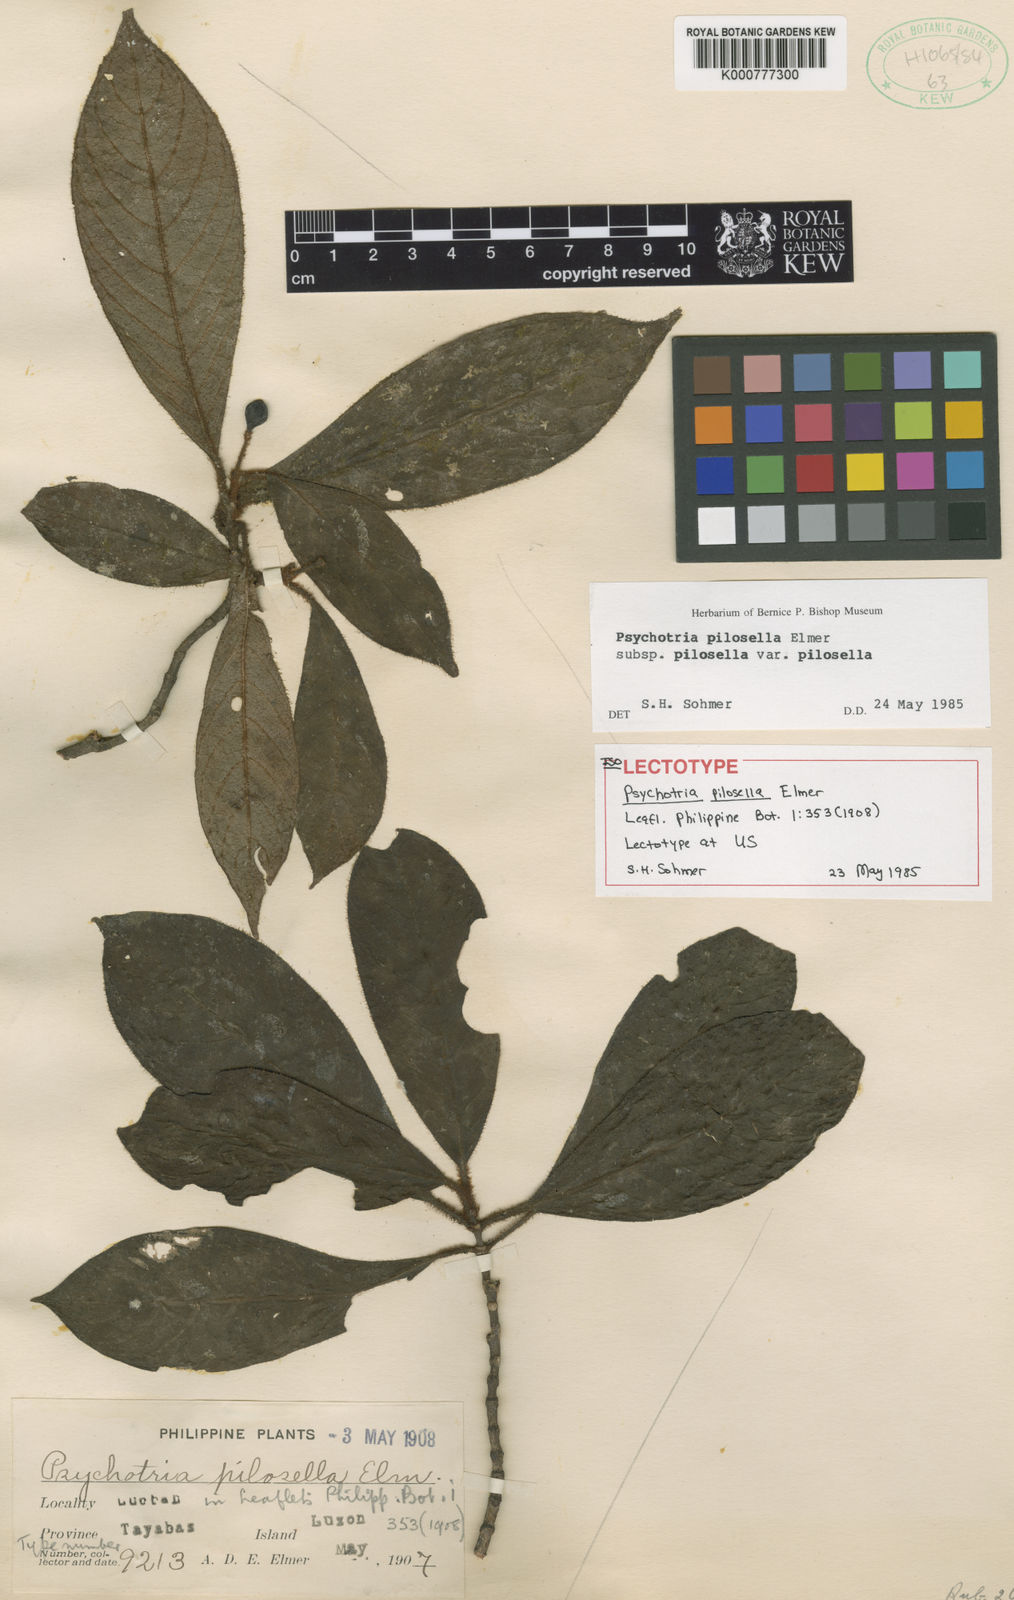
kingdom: Plantae
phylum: Tracheophyta
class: Magnoliopsida
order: Gentianales
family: Rubiaceae
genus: Psychotria
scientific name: Psychotria pilosella
